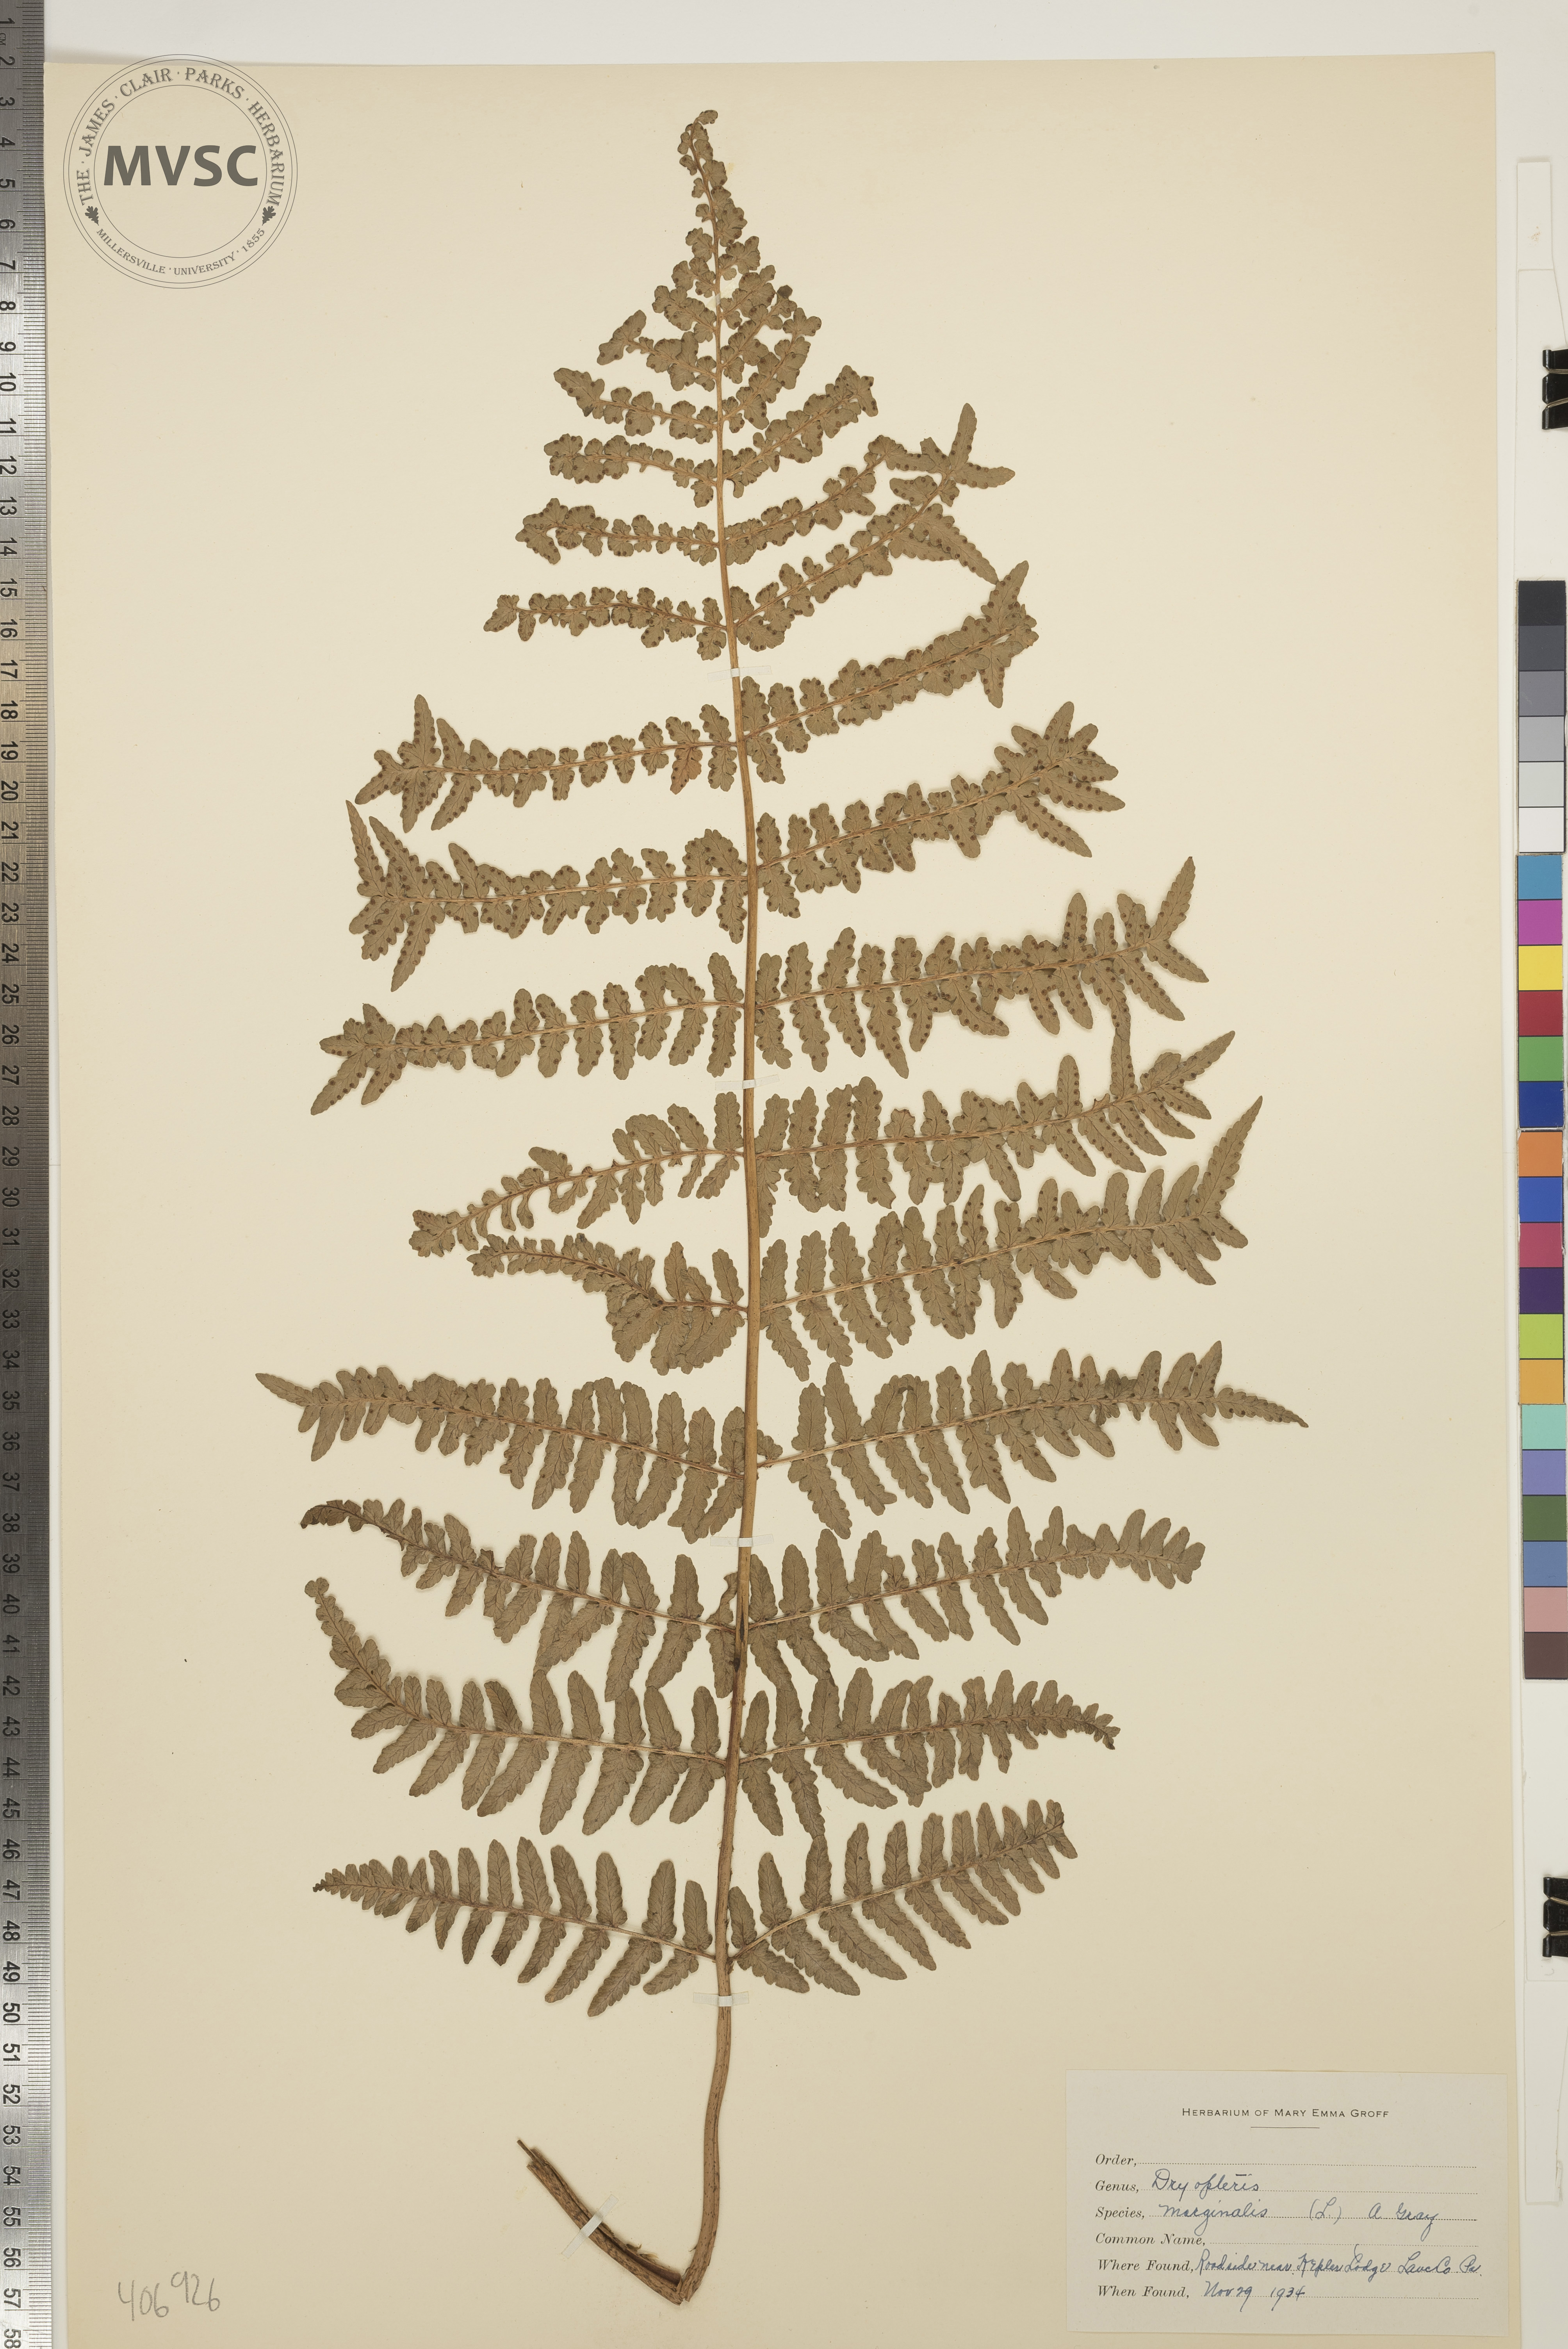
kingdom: Plantae
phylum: Tracheophyta
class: Polypodiopsida
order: Polypodiales
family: Dryopteridaceae
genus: Dryopteris
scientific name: Dryopteris marginalis
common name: Evergreen Wood Fern
